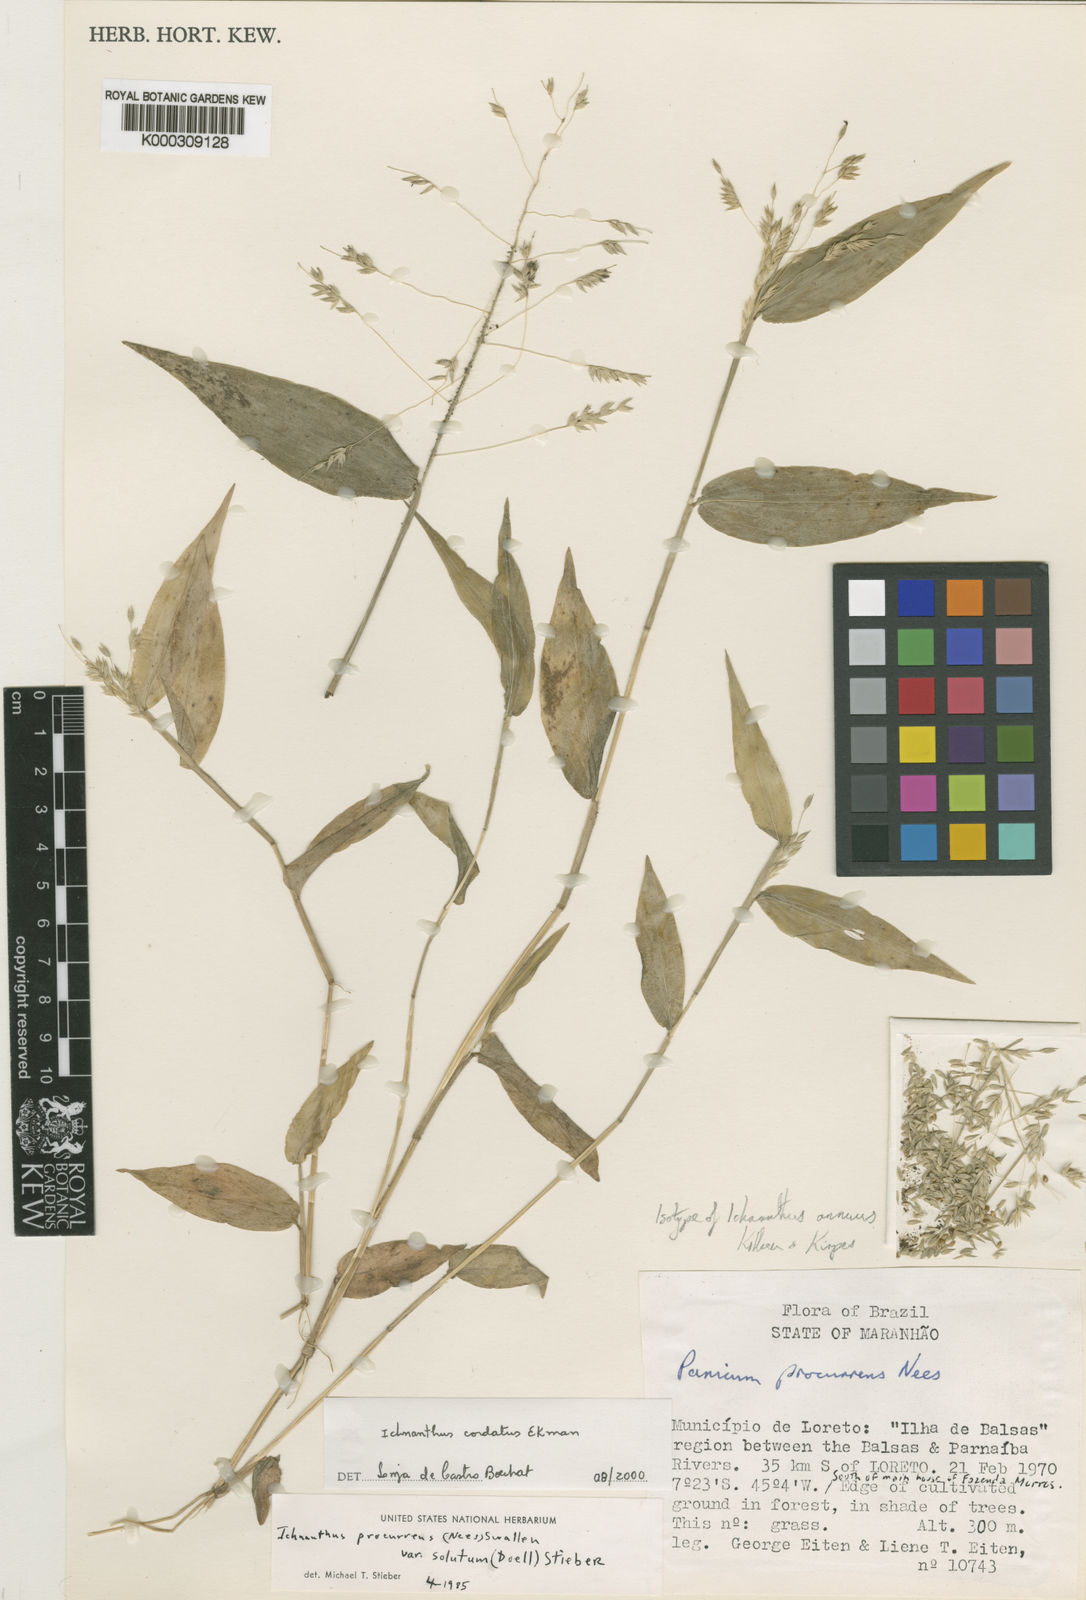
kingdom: Plantae
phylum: Tracheophyta
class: Liliopsida
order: Poales
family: Poaceae
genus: Ichnanthus
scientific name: Ichnanthus annuus
